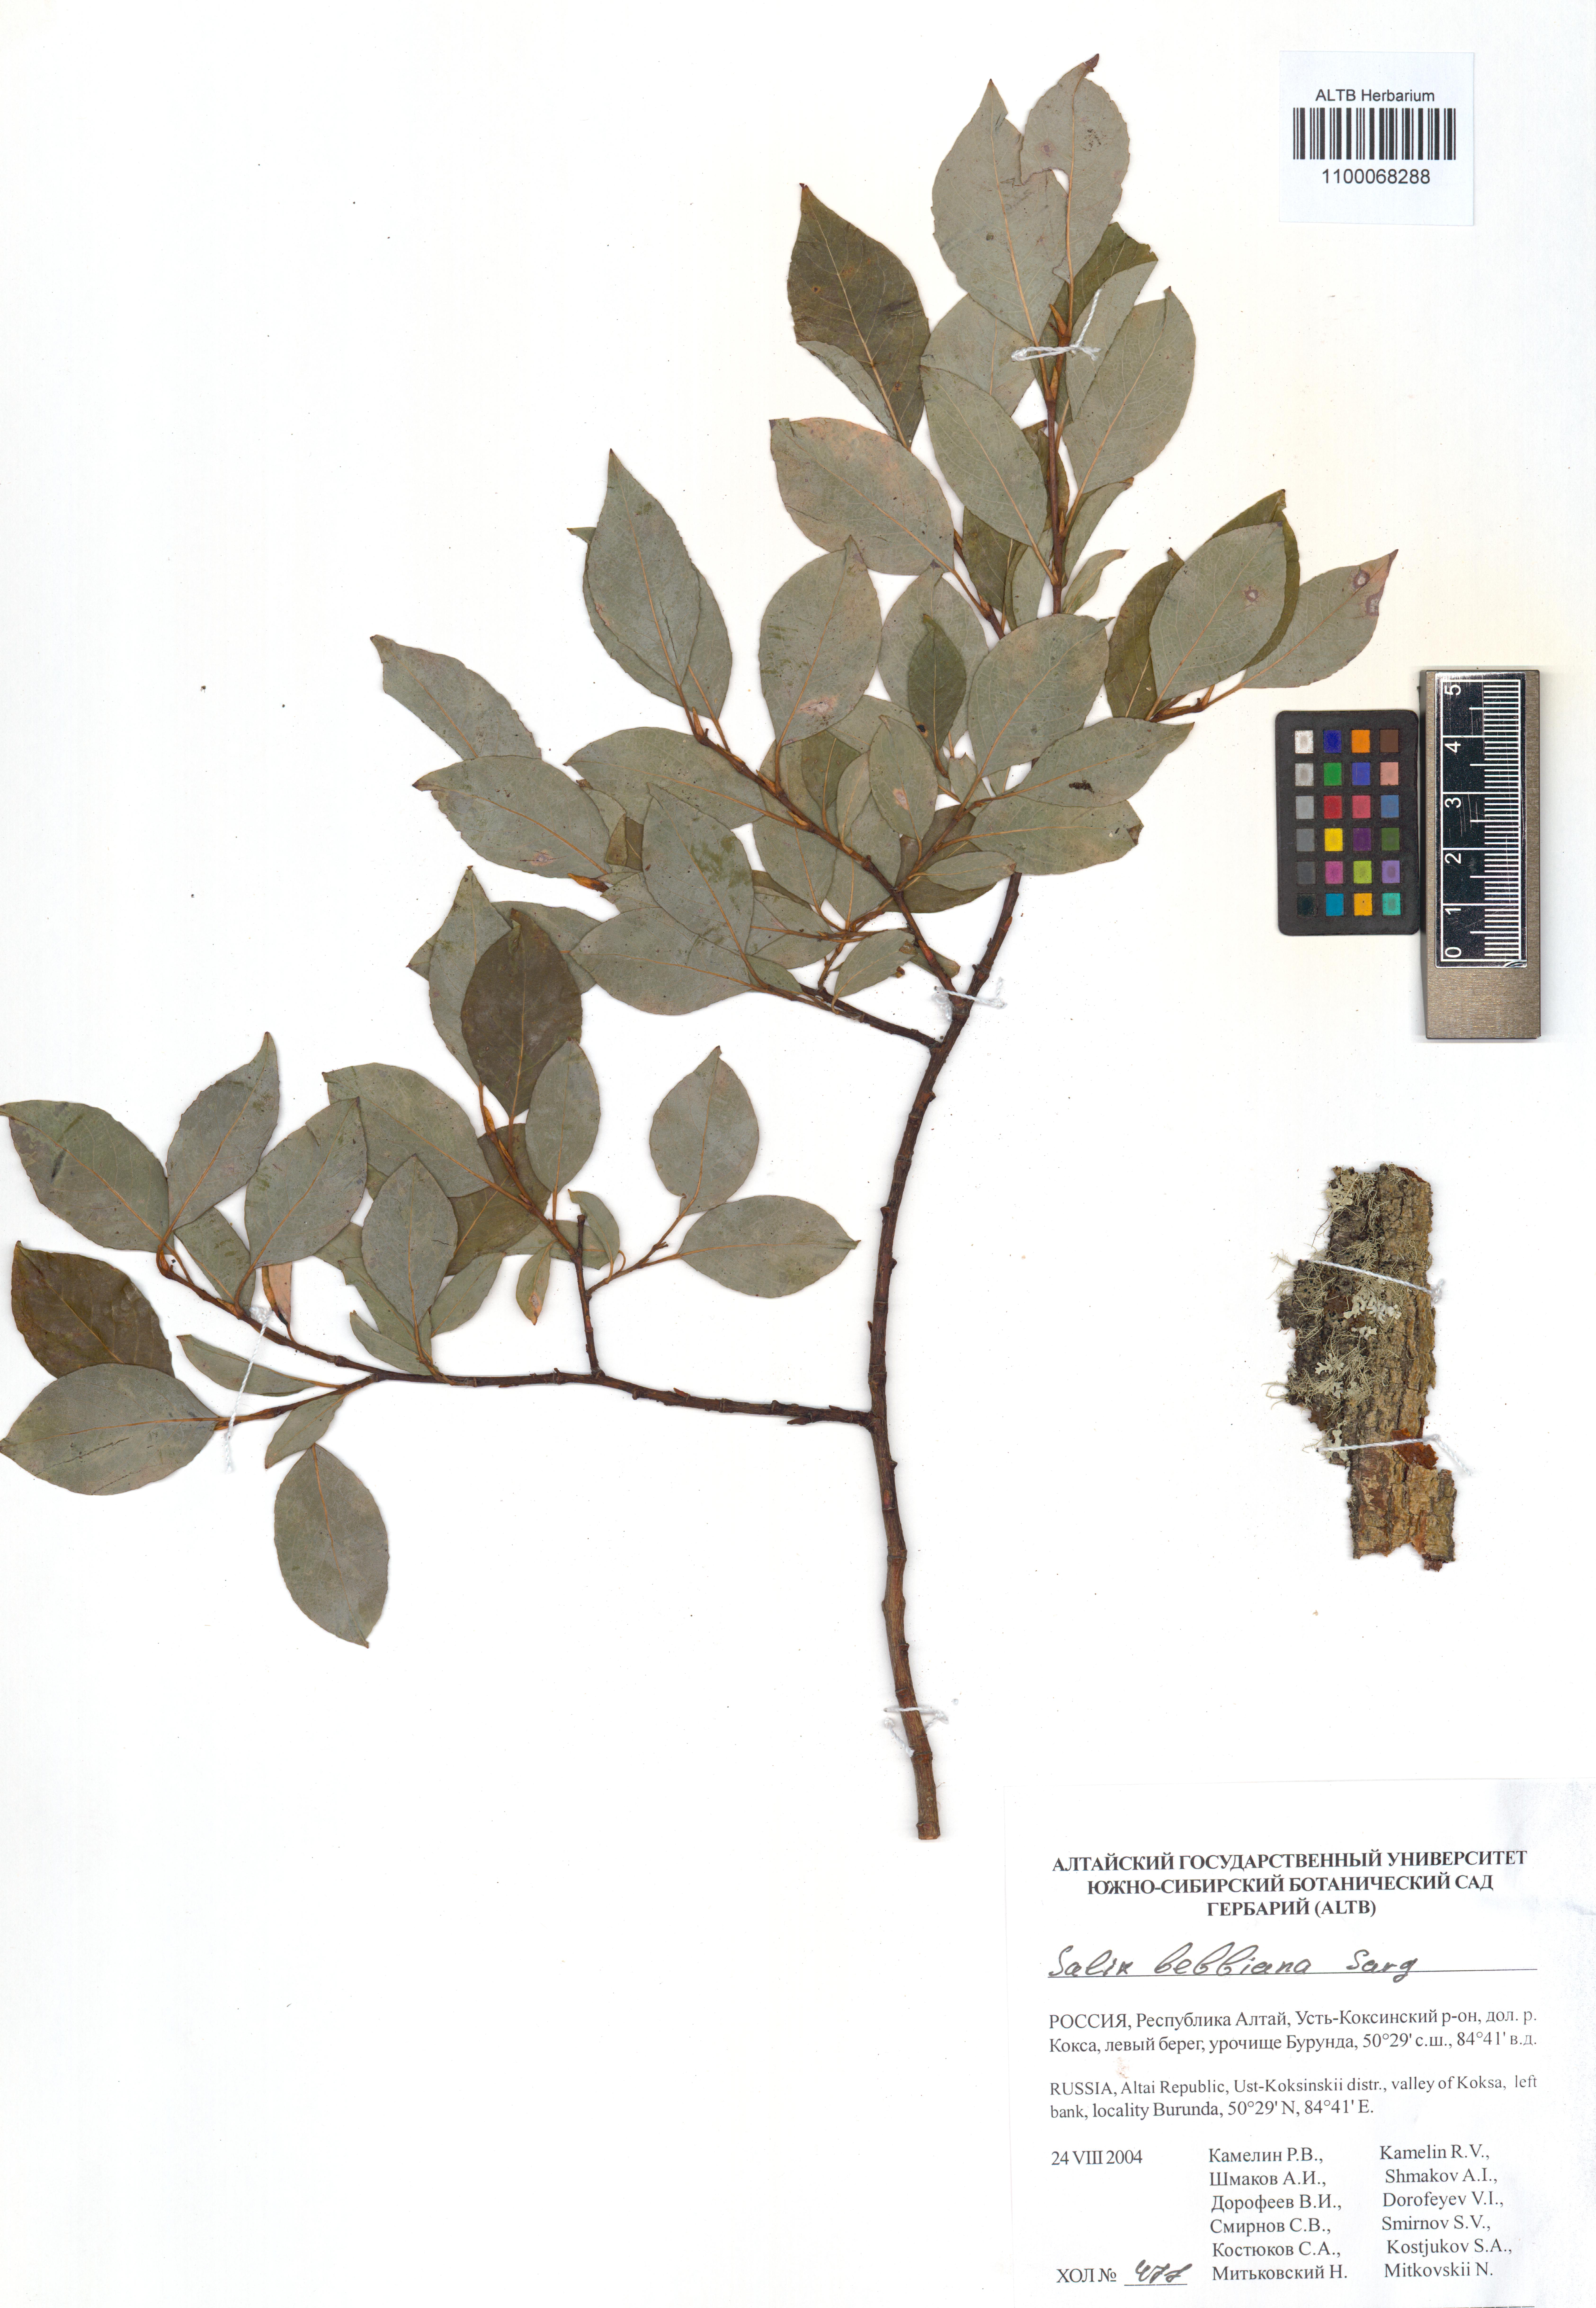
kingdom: Plantae
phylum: Tracheophyta
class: Magnoliopsida
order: Malpighiales
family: Salicaceae
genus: Salix
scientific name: Salix bebbiana
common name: Bebb's willow
